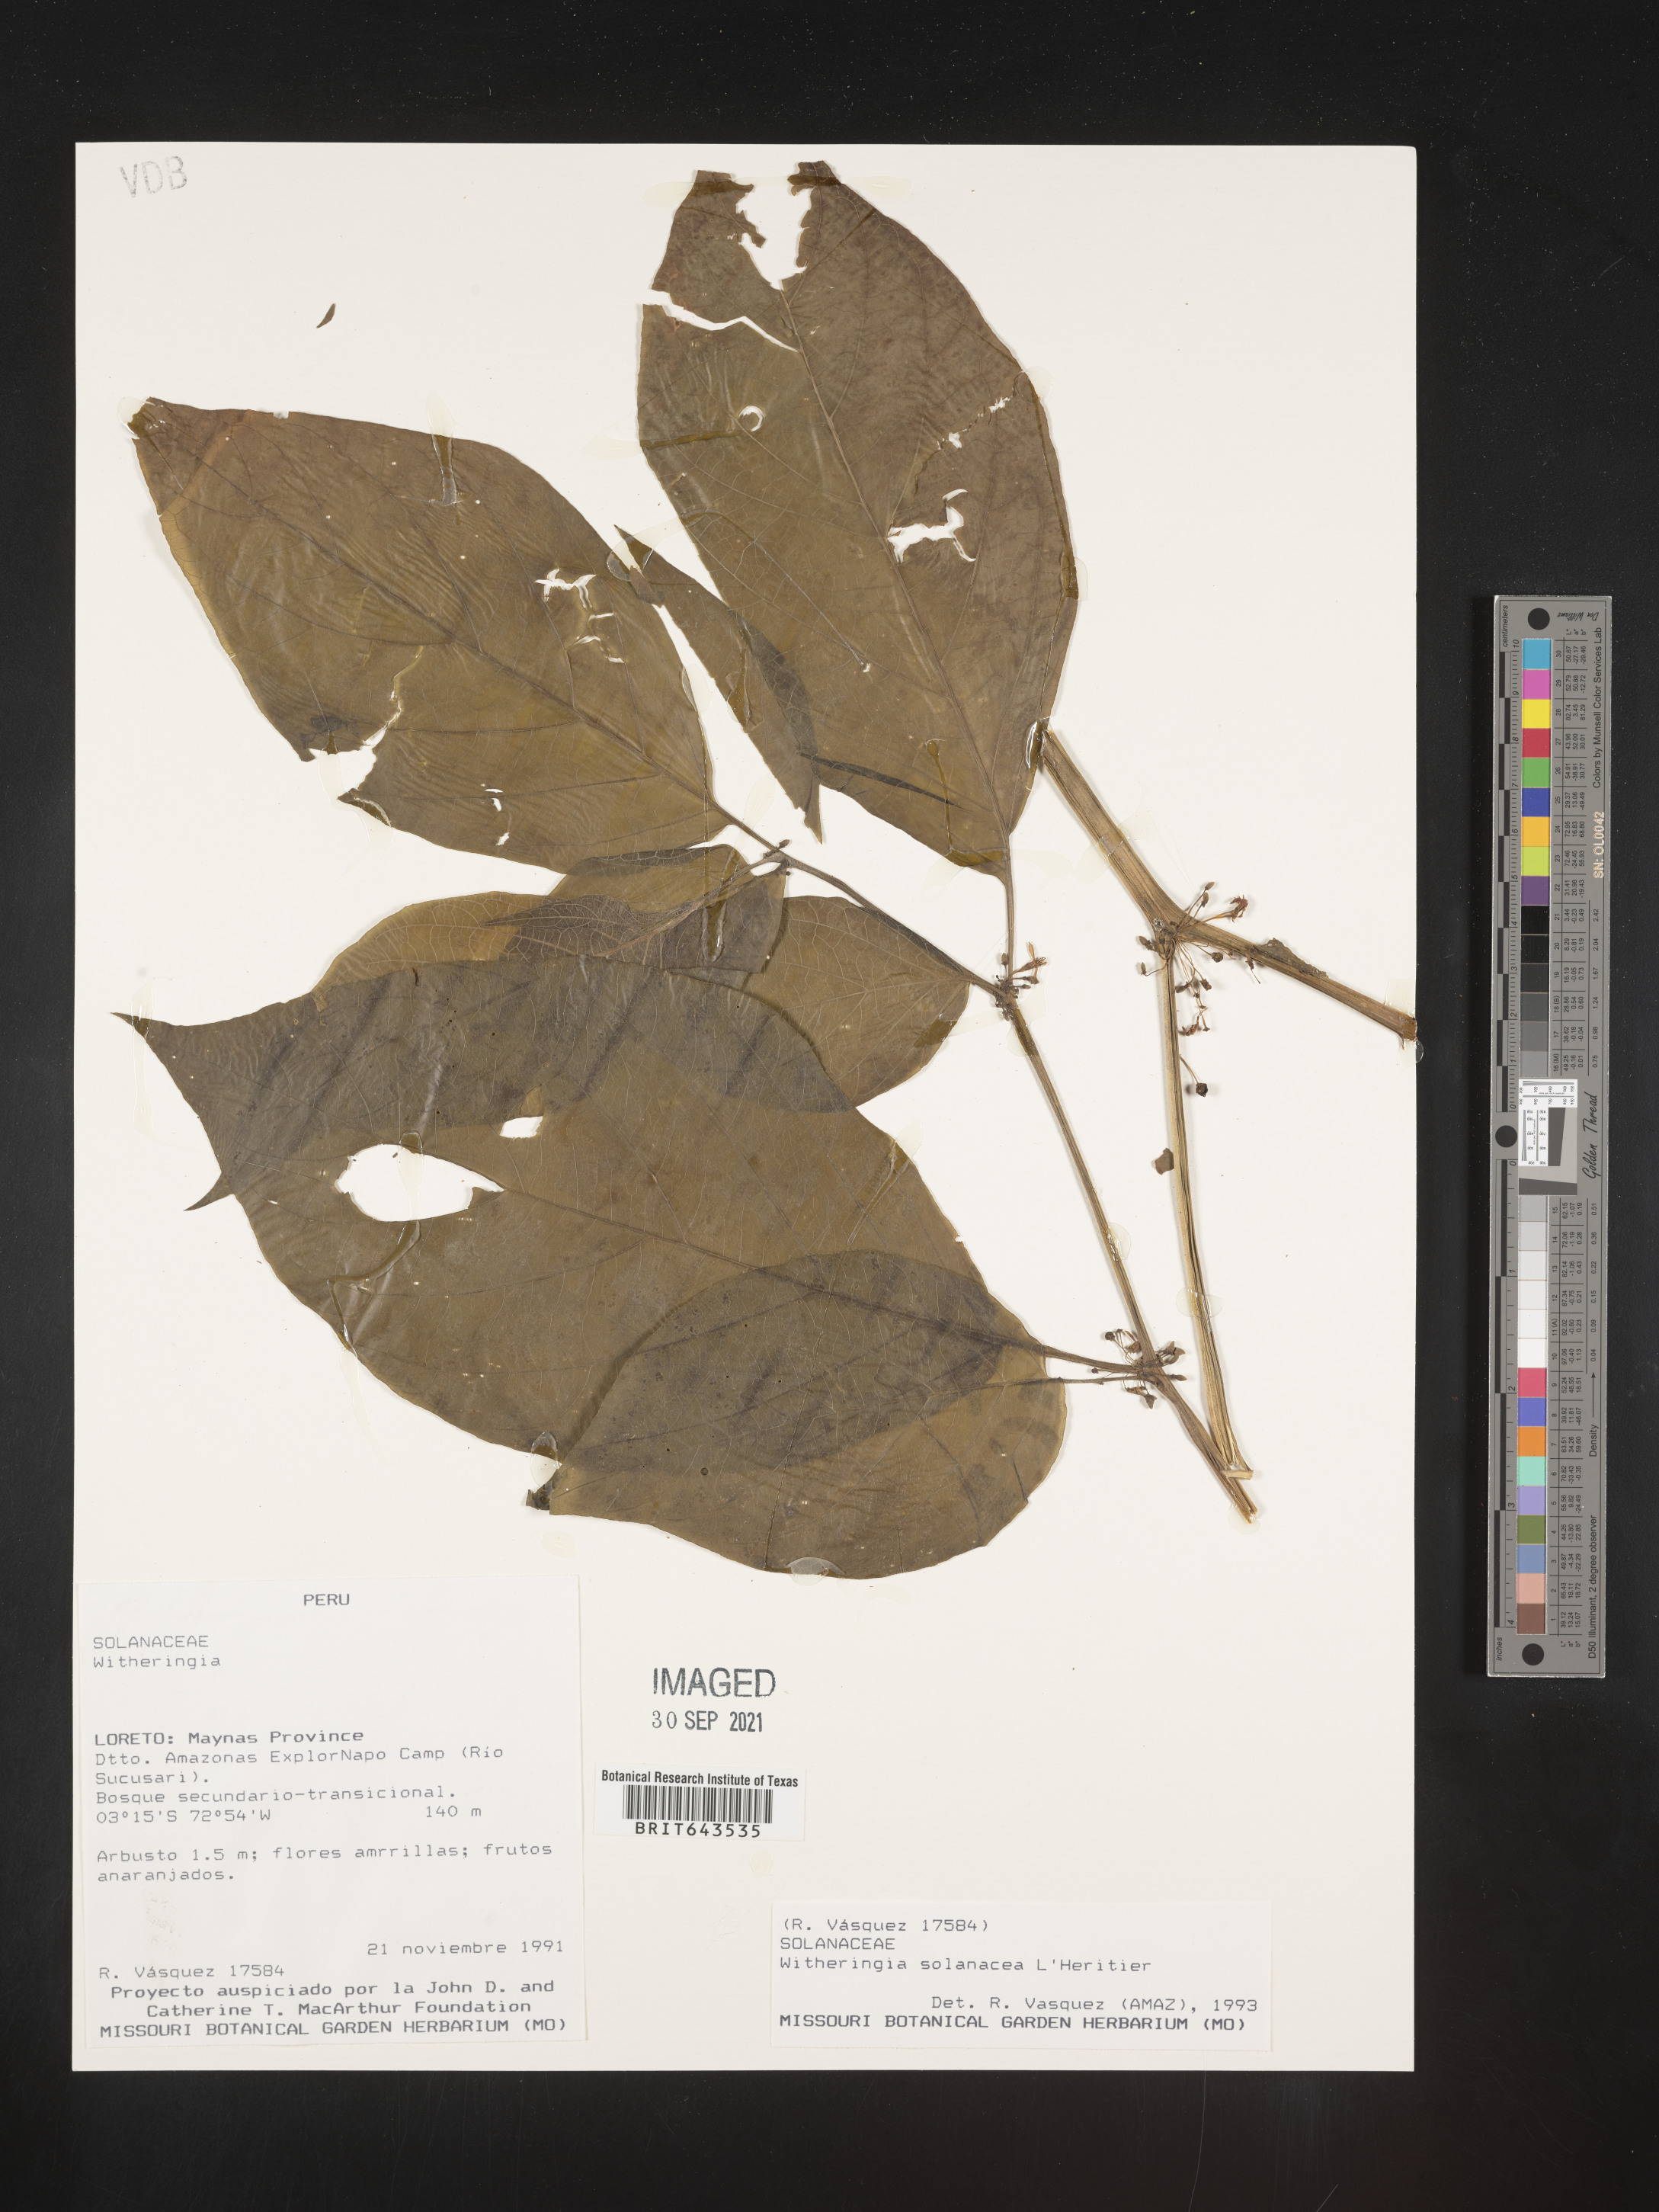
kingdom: Plantae
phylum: Tracheophyta
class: Magnoliopsida
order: Solanales
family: Solanaceae
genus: Witheringia
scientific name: Witheringia
